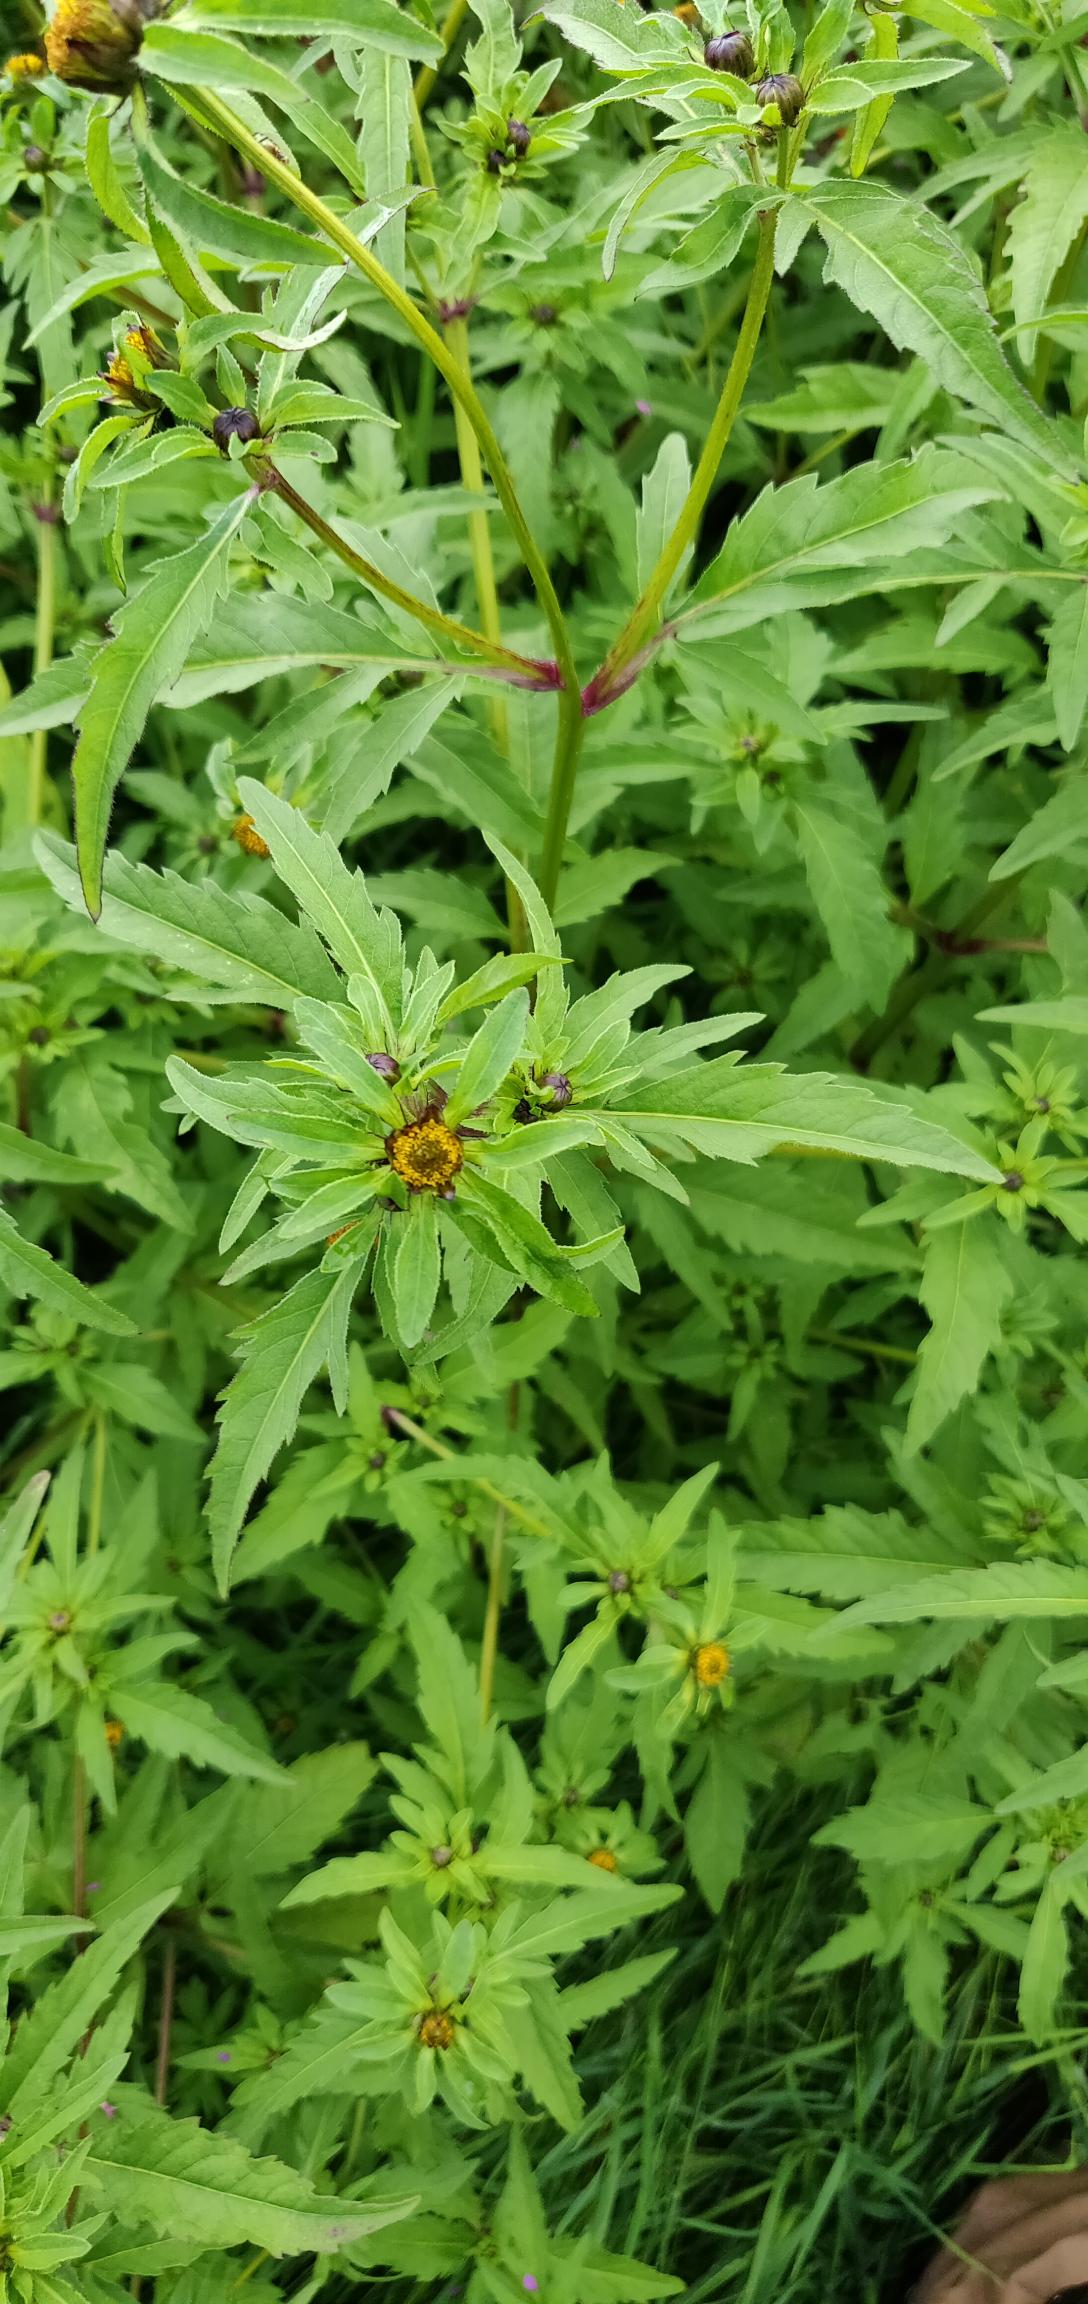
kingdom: Plantae
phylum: Tracheophyta
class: Magnoliopsida
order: Asterales
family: Asteraceae
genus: Bidens
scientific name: Bidens tripartita
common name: Fliget brøndsel
